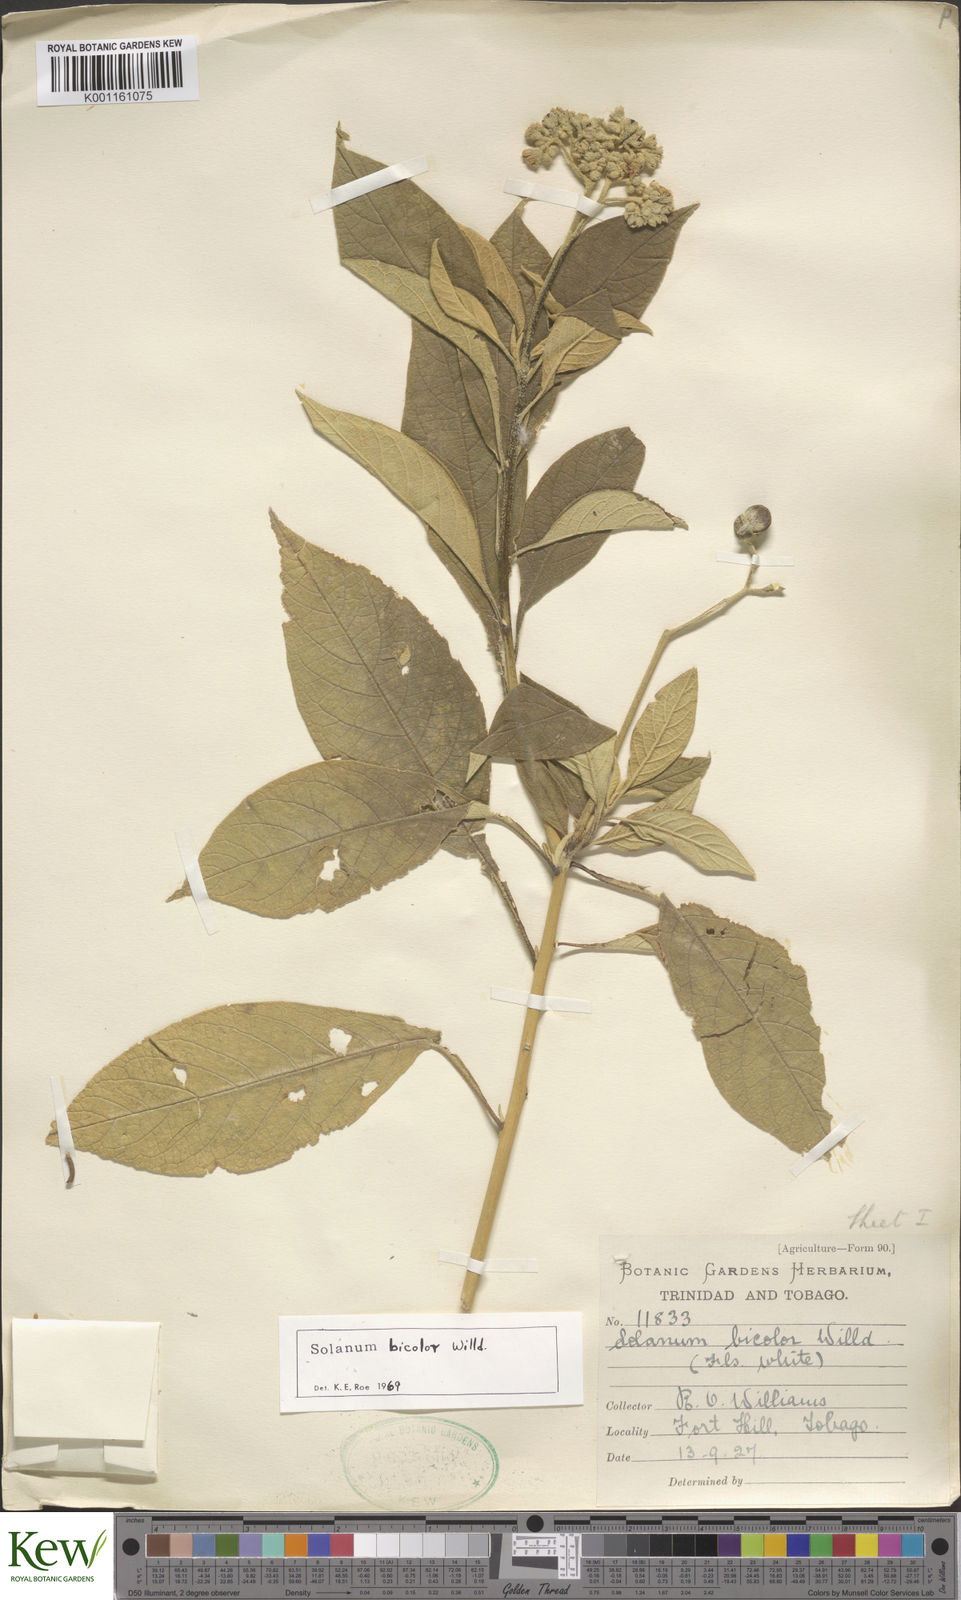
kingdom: Plantae
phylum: Tracheophyta
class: Magnoliopsida
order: Solanales
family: Solanaceae
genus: Solanum
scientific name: Solanum bicolor
